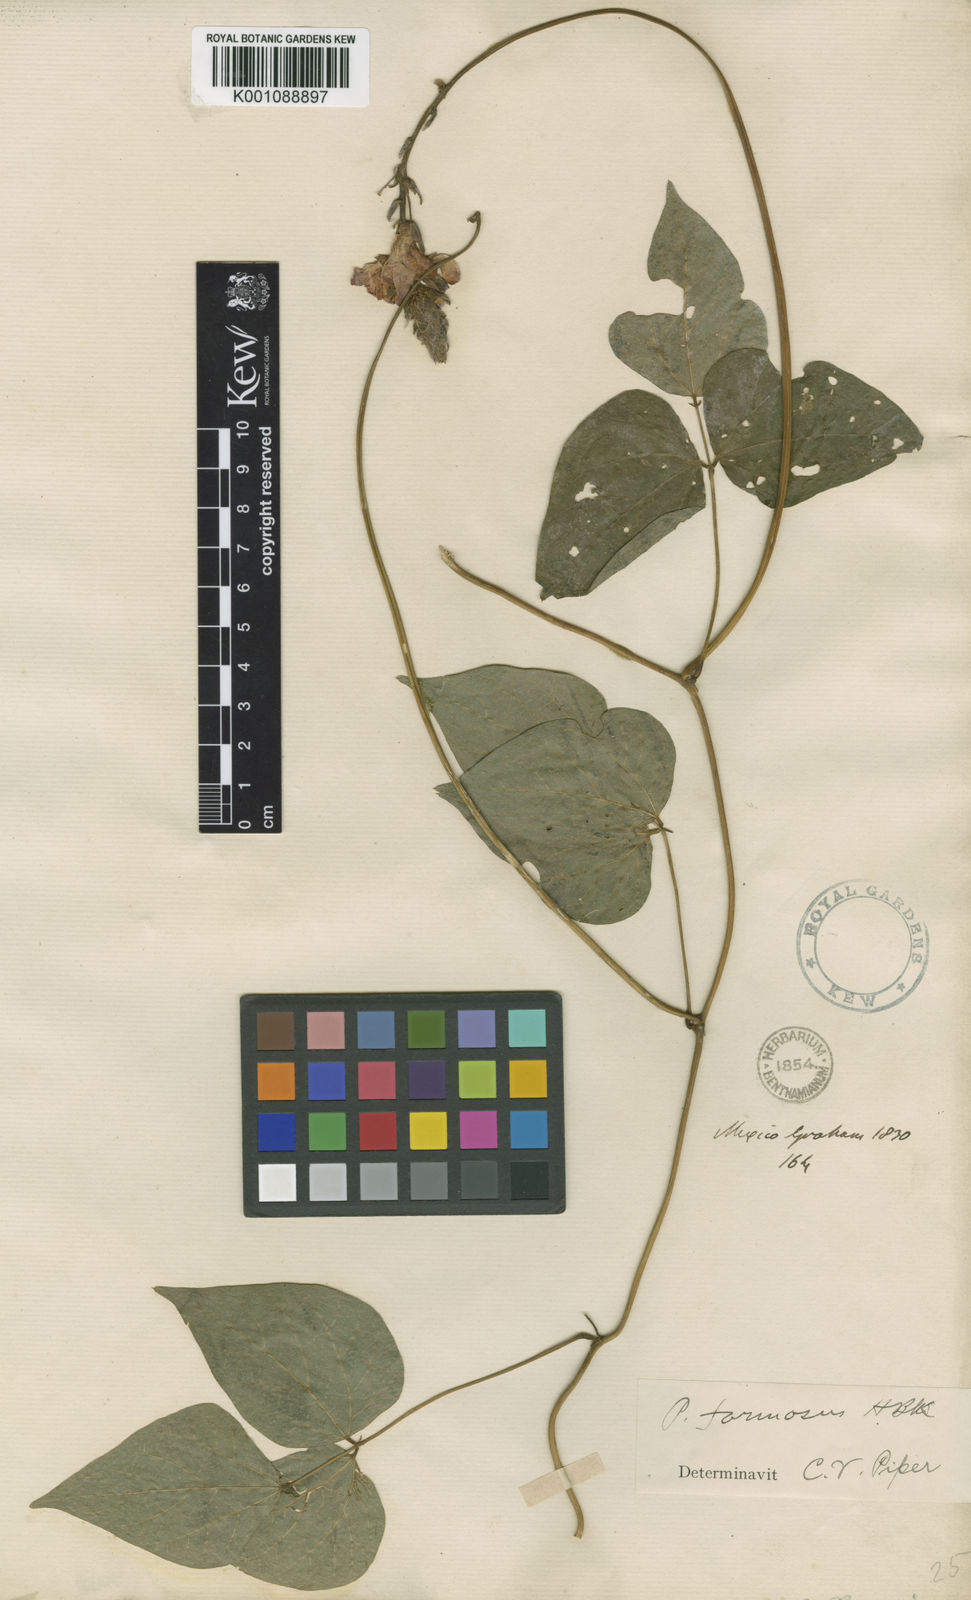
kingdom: Plantae
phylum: Tracheophyta
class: Magnoliopsida
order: Fabales
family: Fabaceae
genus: Phaseolus
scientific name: Phaseolus coccineus
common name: Runner bean
